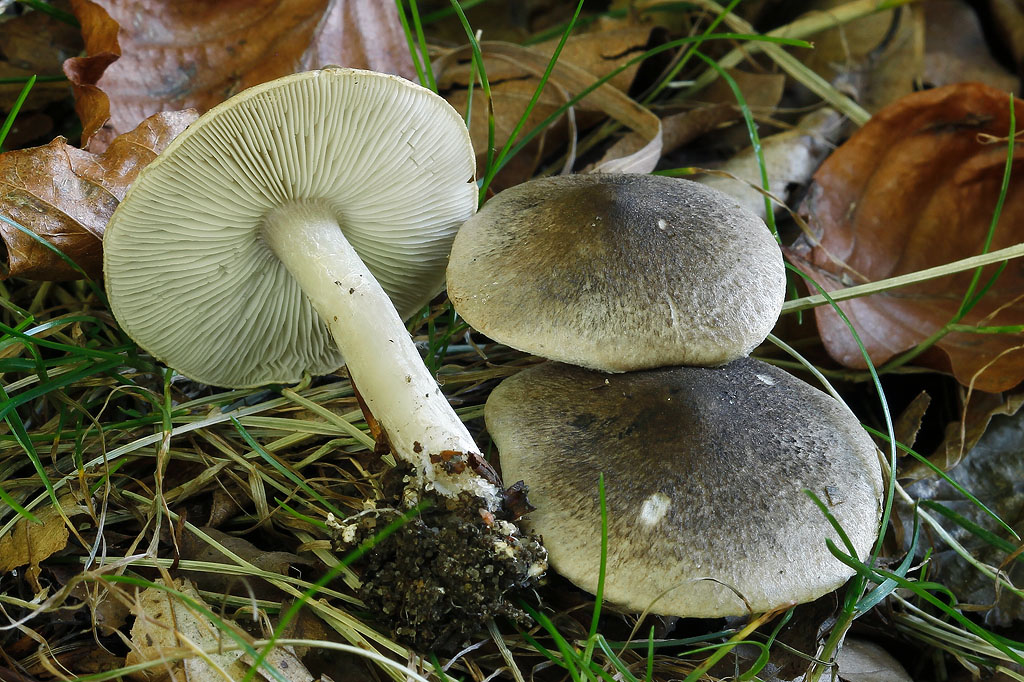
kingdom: Fungi
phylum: Basidiomycota
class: Agaricomycetes
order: Agaricales
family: Tricholomataceae
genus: Tricholoma
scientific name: Tricholoma scalpturatum
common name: gulplettet ridderhat
